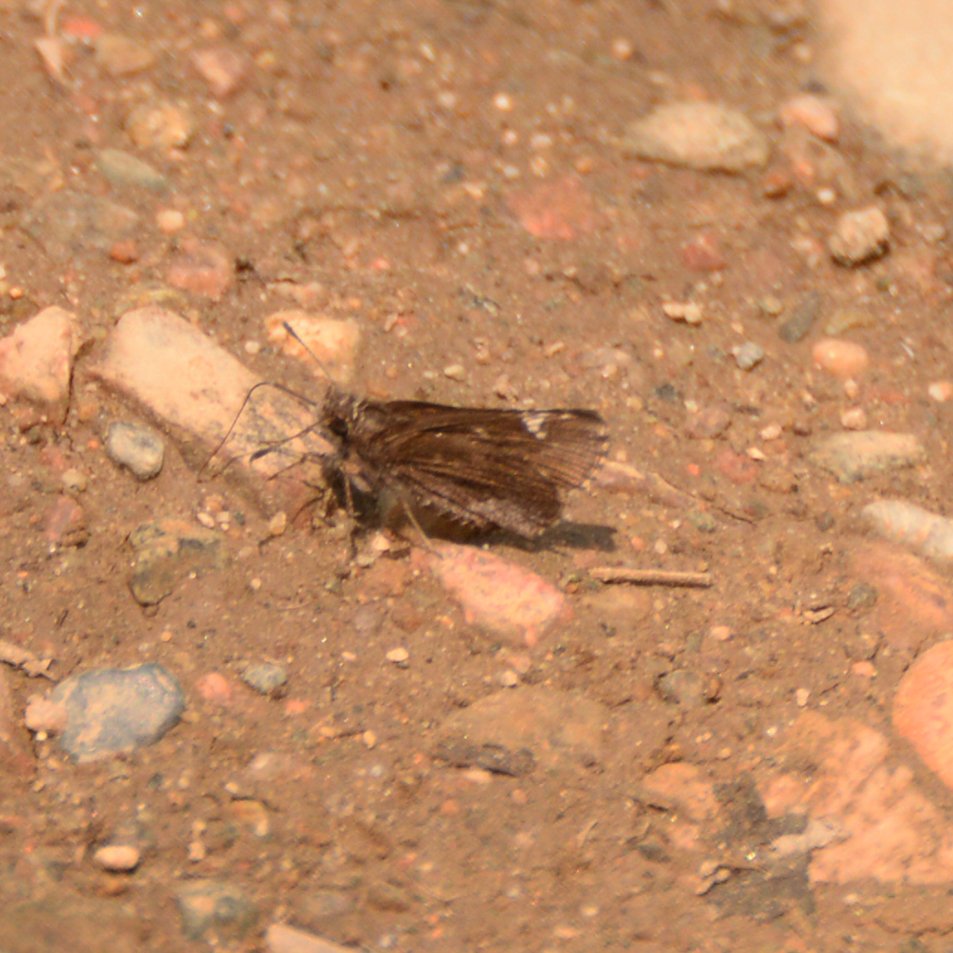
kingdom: Animalia
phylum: Arthropoda
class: Insecta
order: Lepidoptera
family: Hesperiidae
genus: Mastor
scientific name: Mastor vialis
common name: Common Roadside-Skipper
